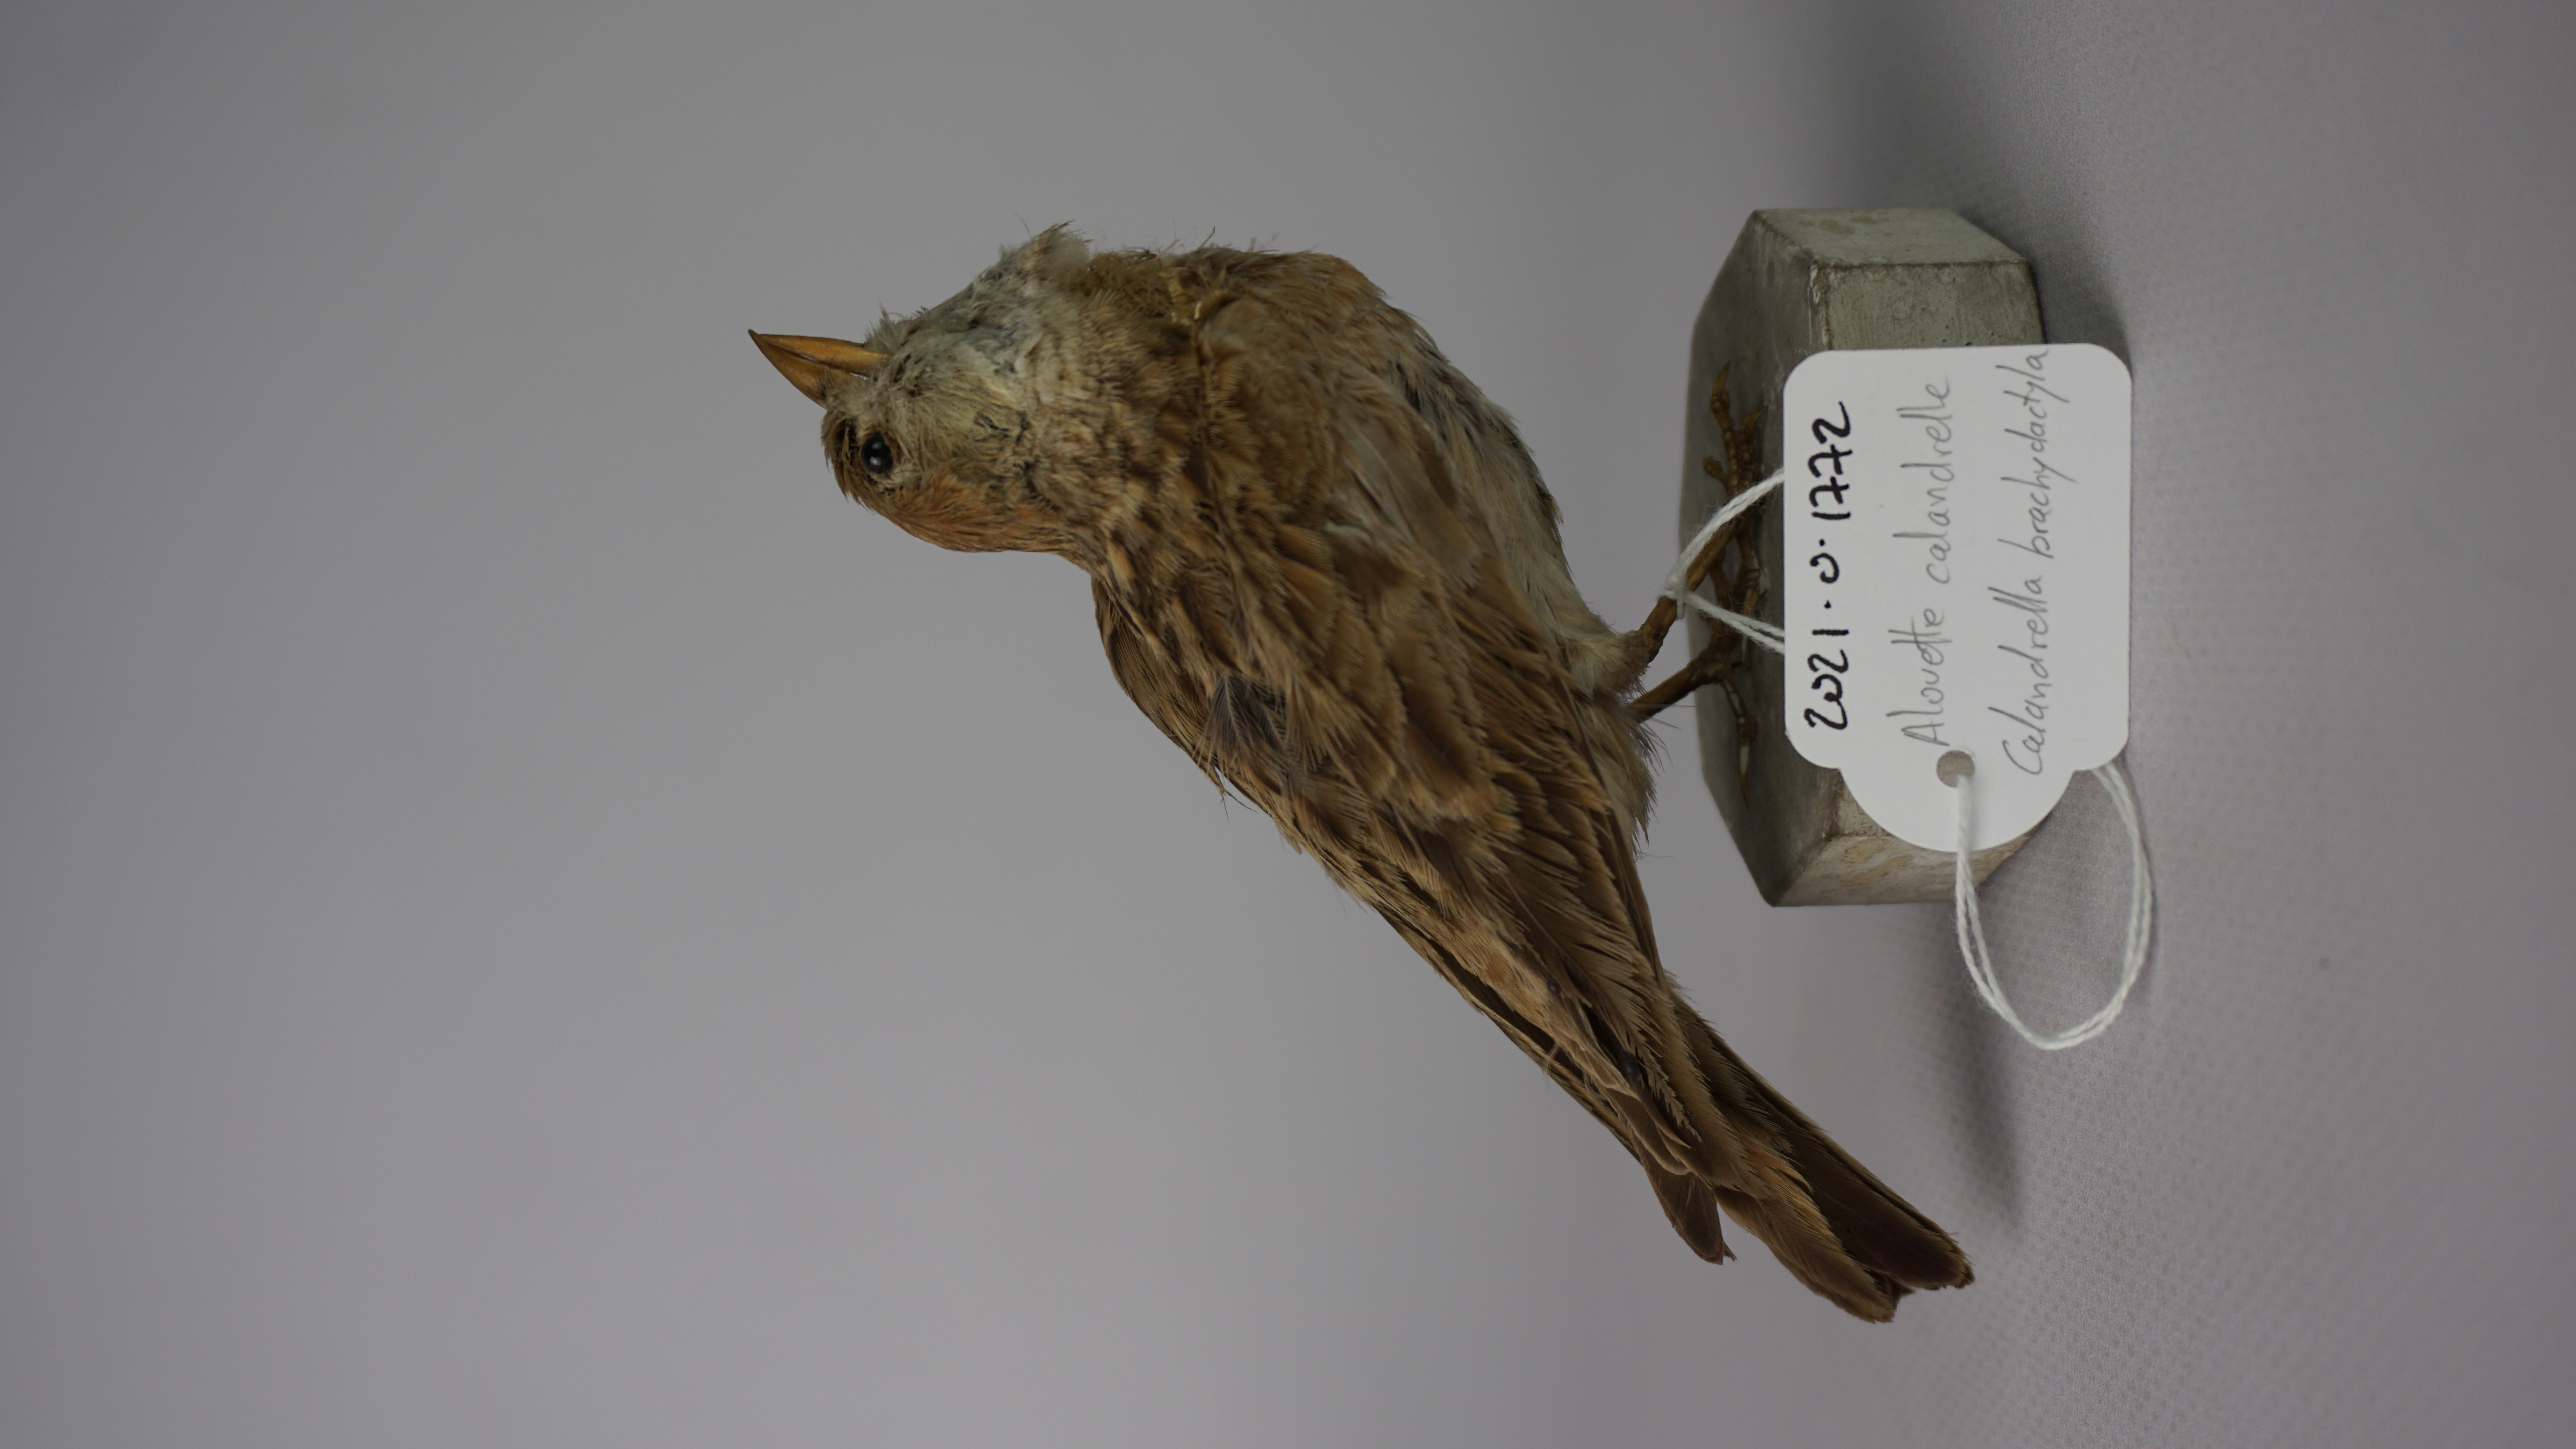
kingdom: Animalia
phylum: Chordata
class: Aves
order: Passeriformes
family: Alaudidae
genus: Calandrella
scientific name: Calandrella brachydactyla
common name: Greater short-toed lark
